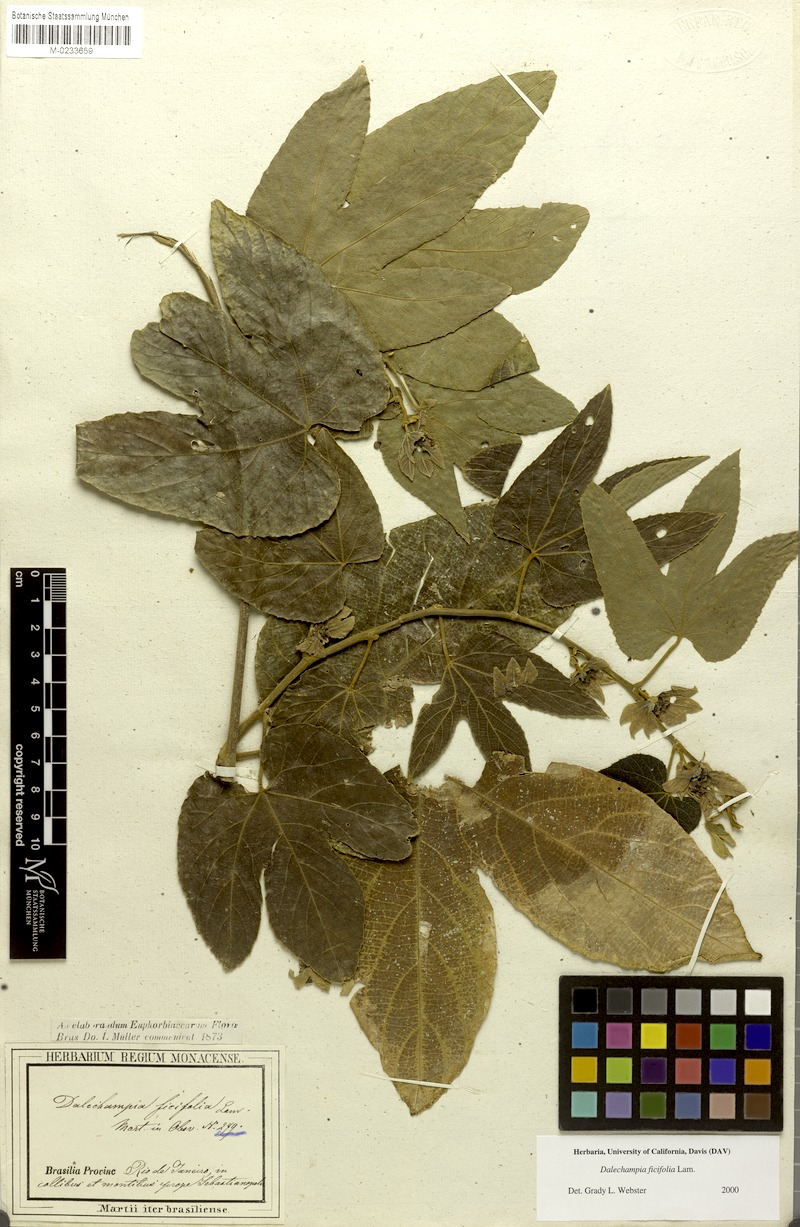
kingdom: Plantae
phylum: Tracheophyta
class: Magnoliopsida
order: Malpighiales
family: Euphorbiaceae
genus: Dalechampia
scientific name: Dalechampia ficifolia
